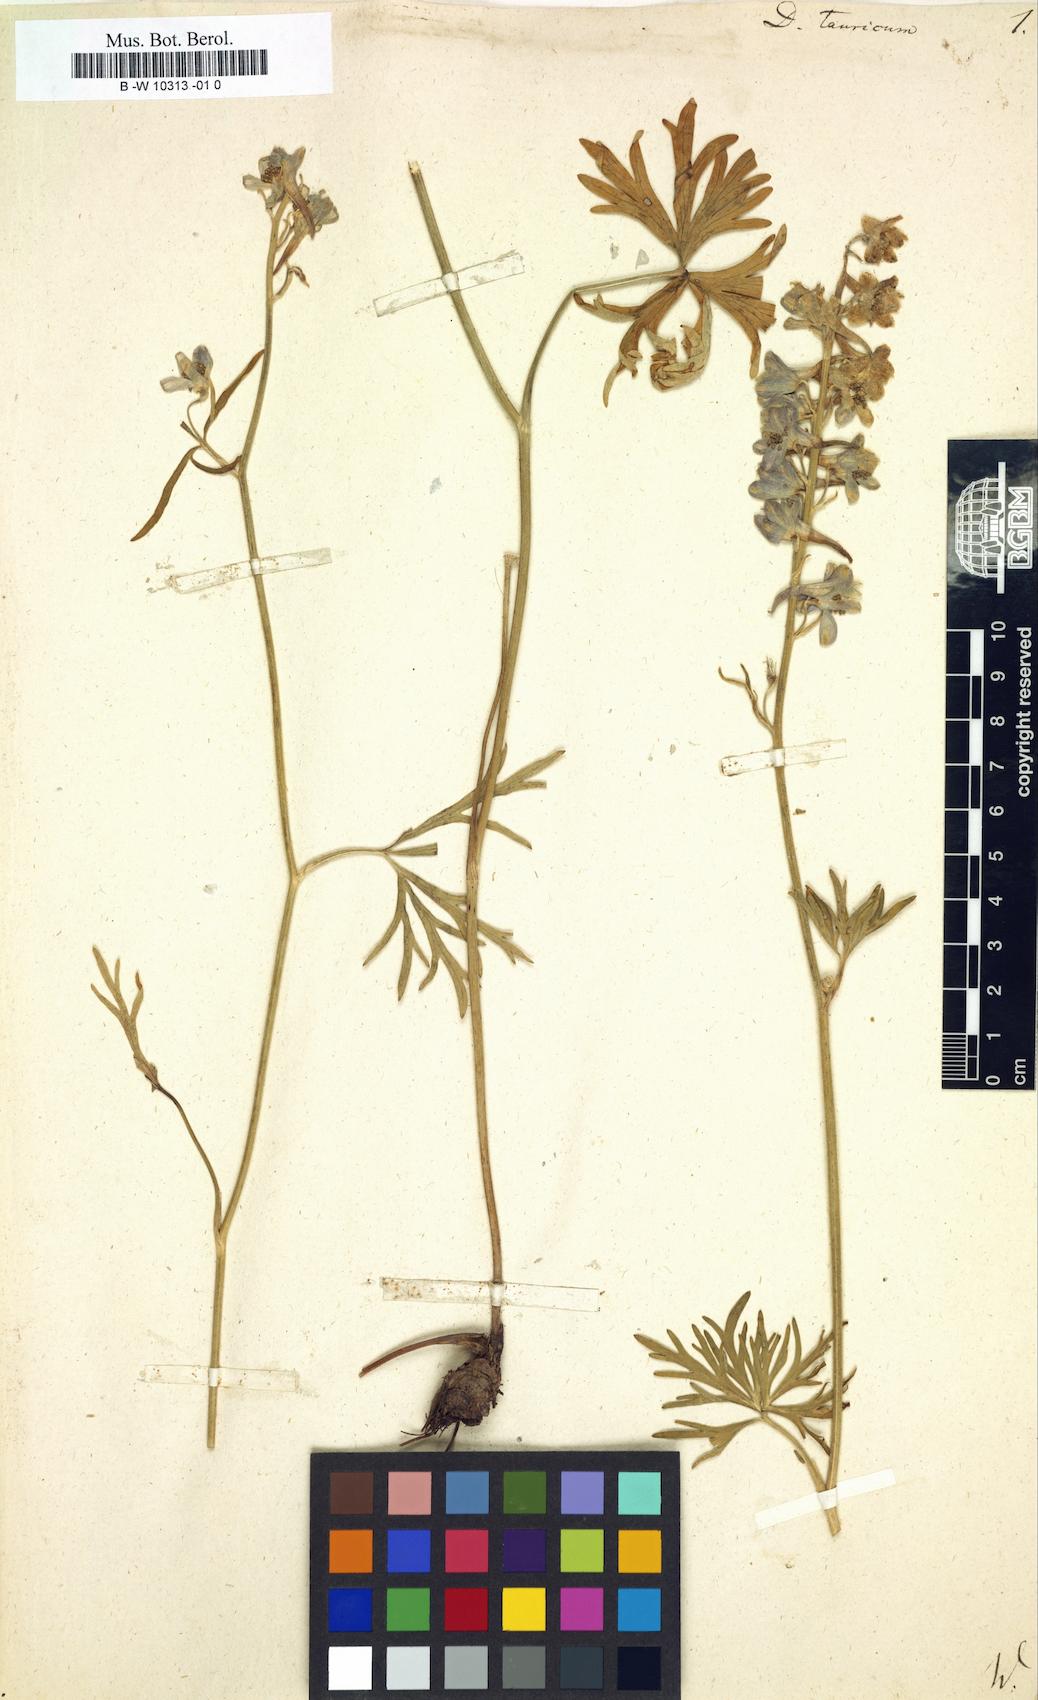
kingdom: Plantae
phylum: Tracheophyta
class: Magnoliopsida
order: Ranunculales
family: Ranunculaceae
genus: Delphinium
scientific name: Delphinium
